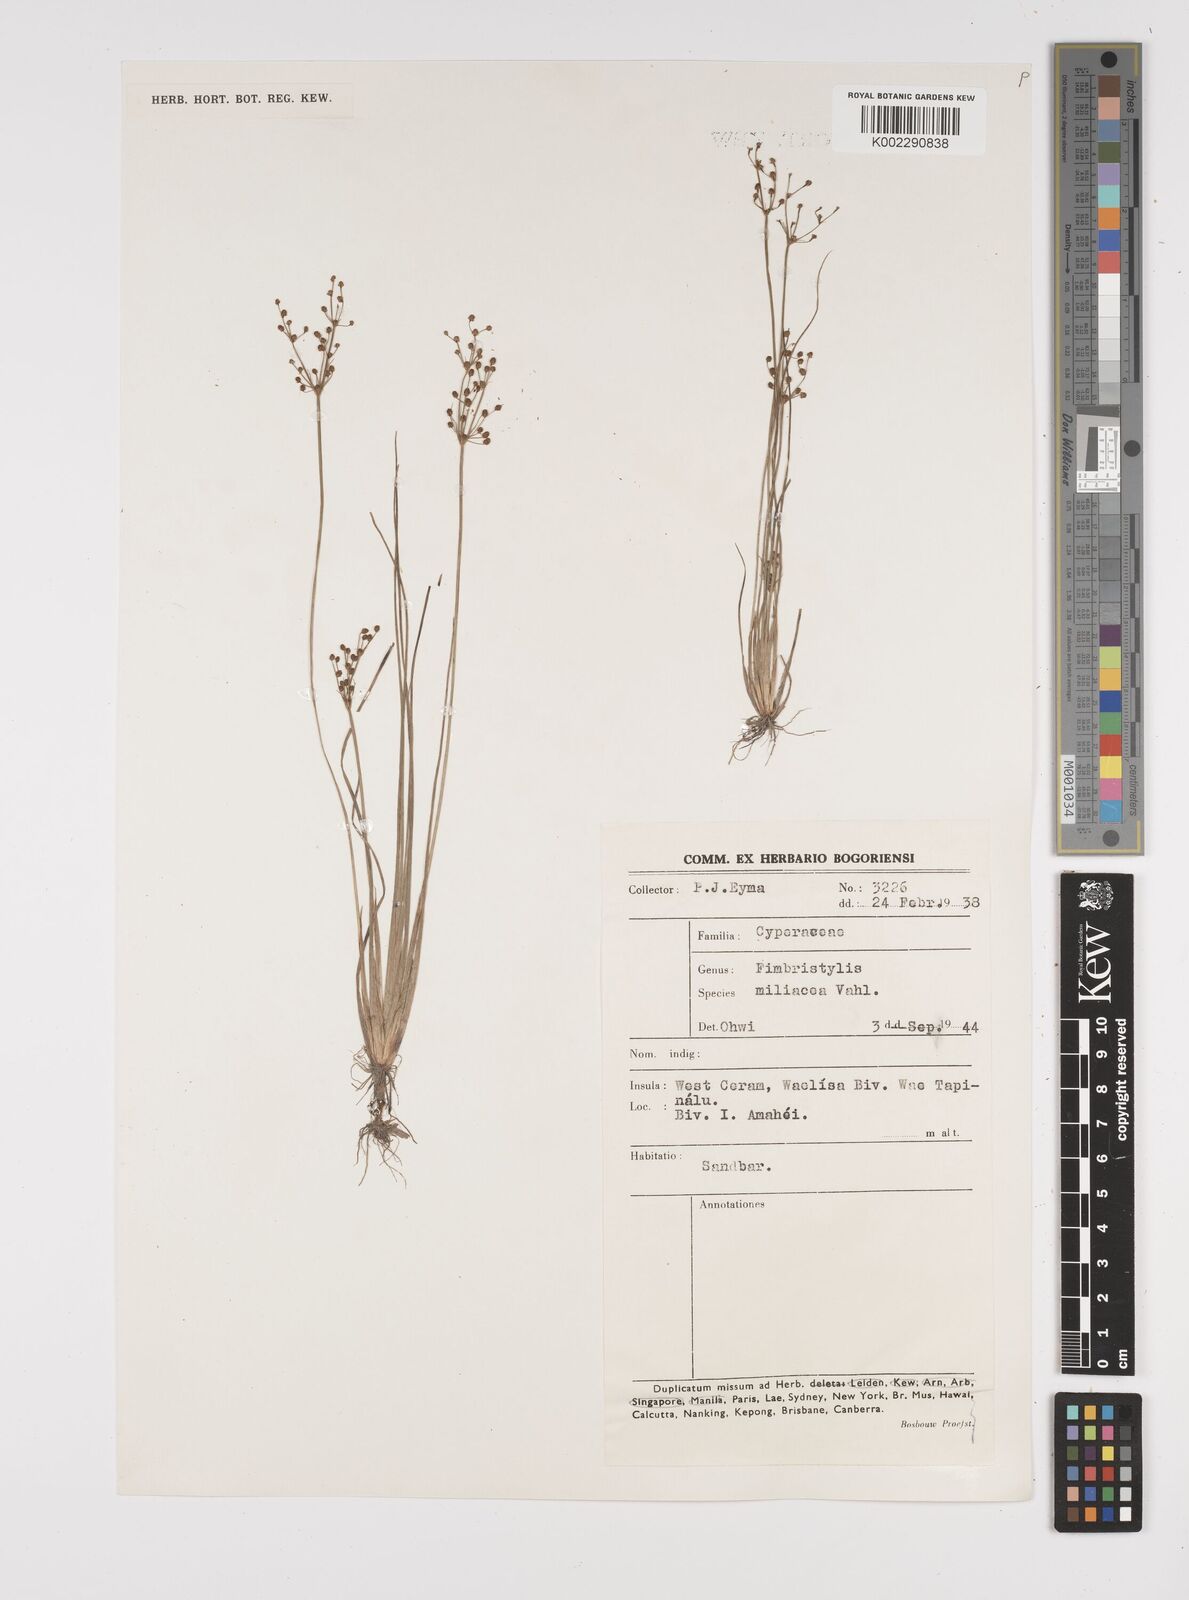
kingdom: Plantae
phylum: Tracheophyta
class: Liliopsida
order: Poales
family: Cyperaceae
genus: Fimbristylis
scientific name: Fimbristylis littoralis
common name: Fimbry
